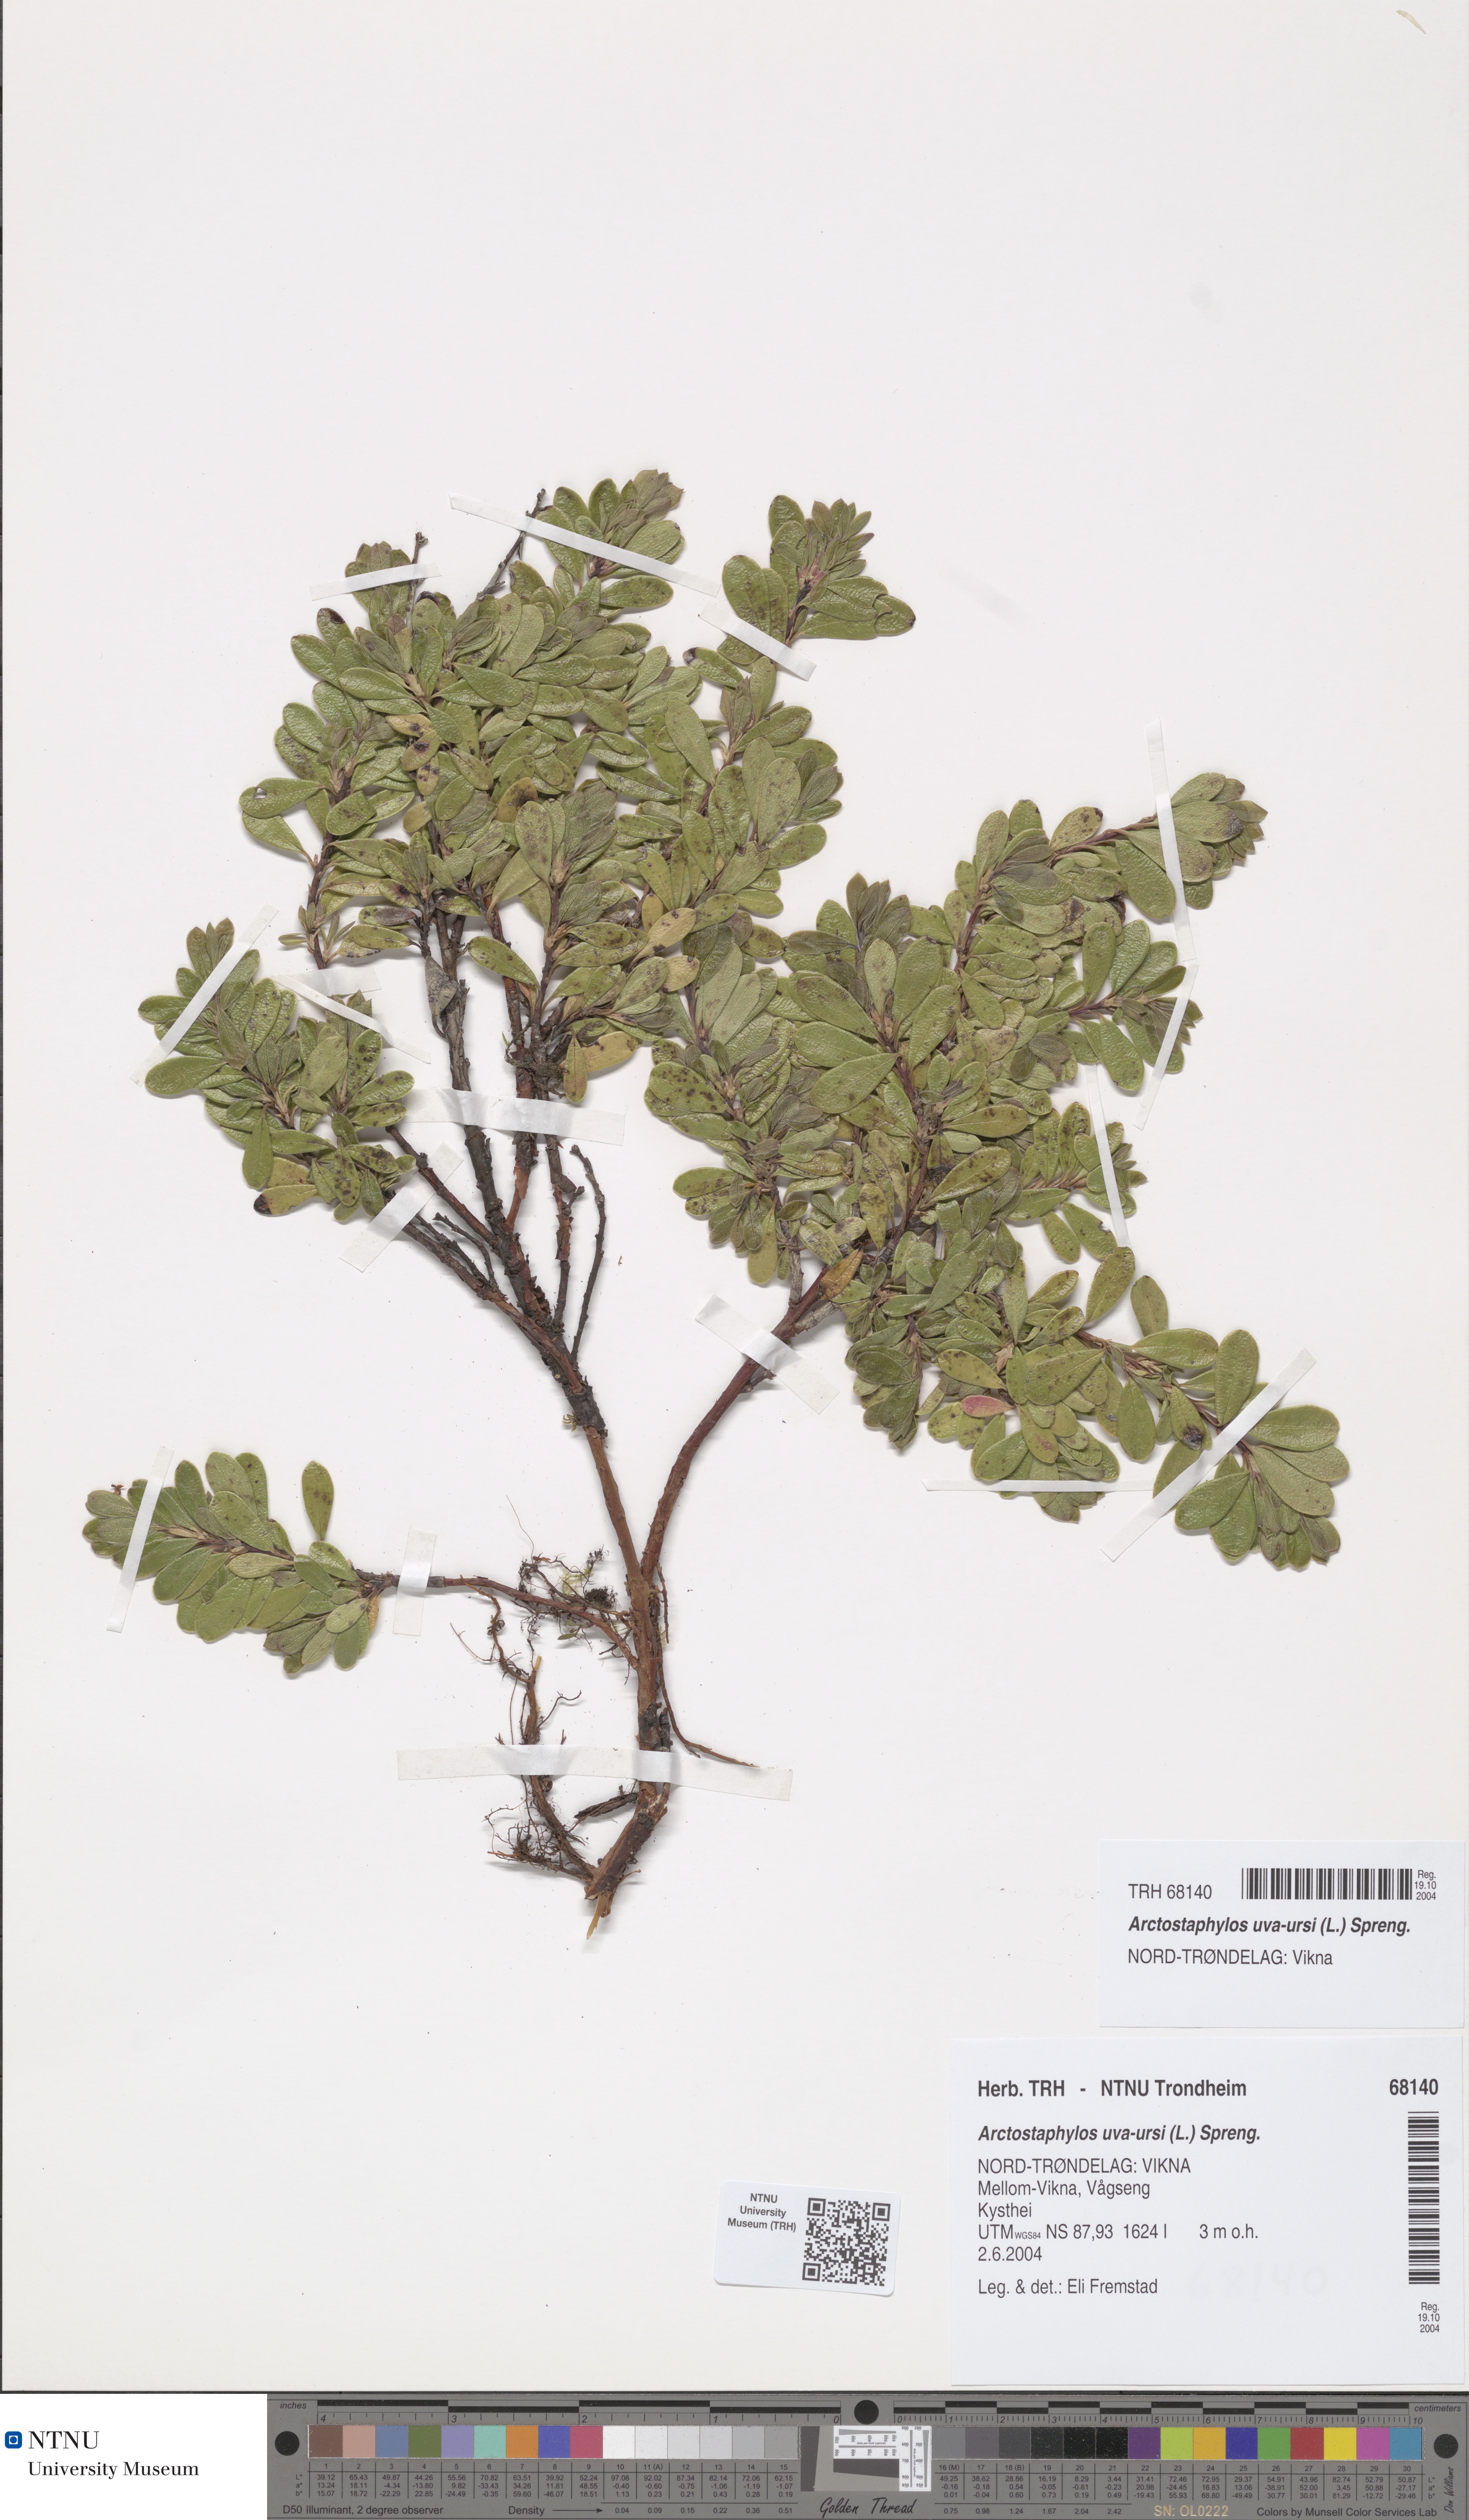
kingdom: Plantae
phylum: Tracheophyta
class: Magnoliopsida
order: Ericales
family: Ericaceae
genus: Arctostaphylos
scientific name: Arctostaphylos uva-ursi
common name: Bearberry
